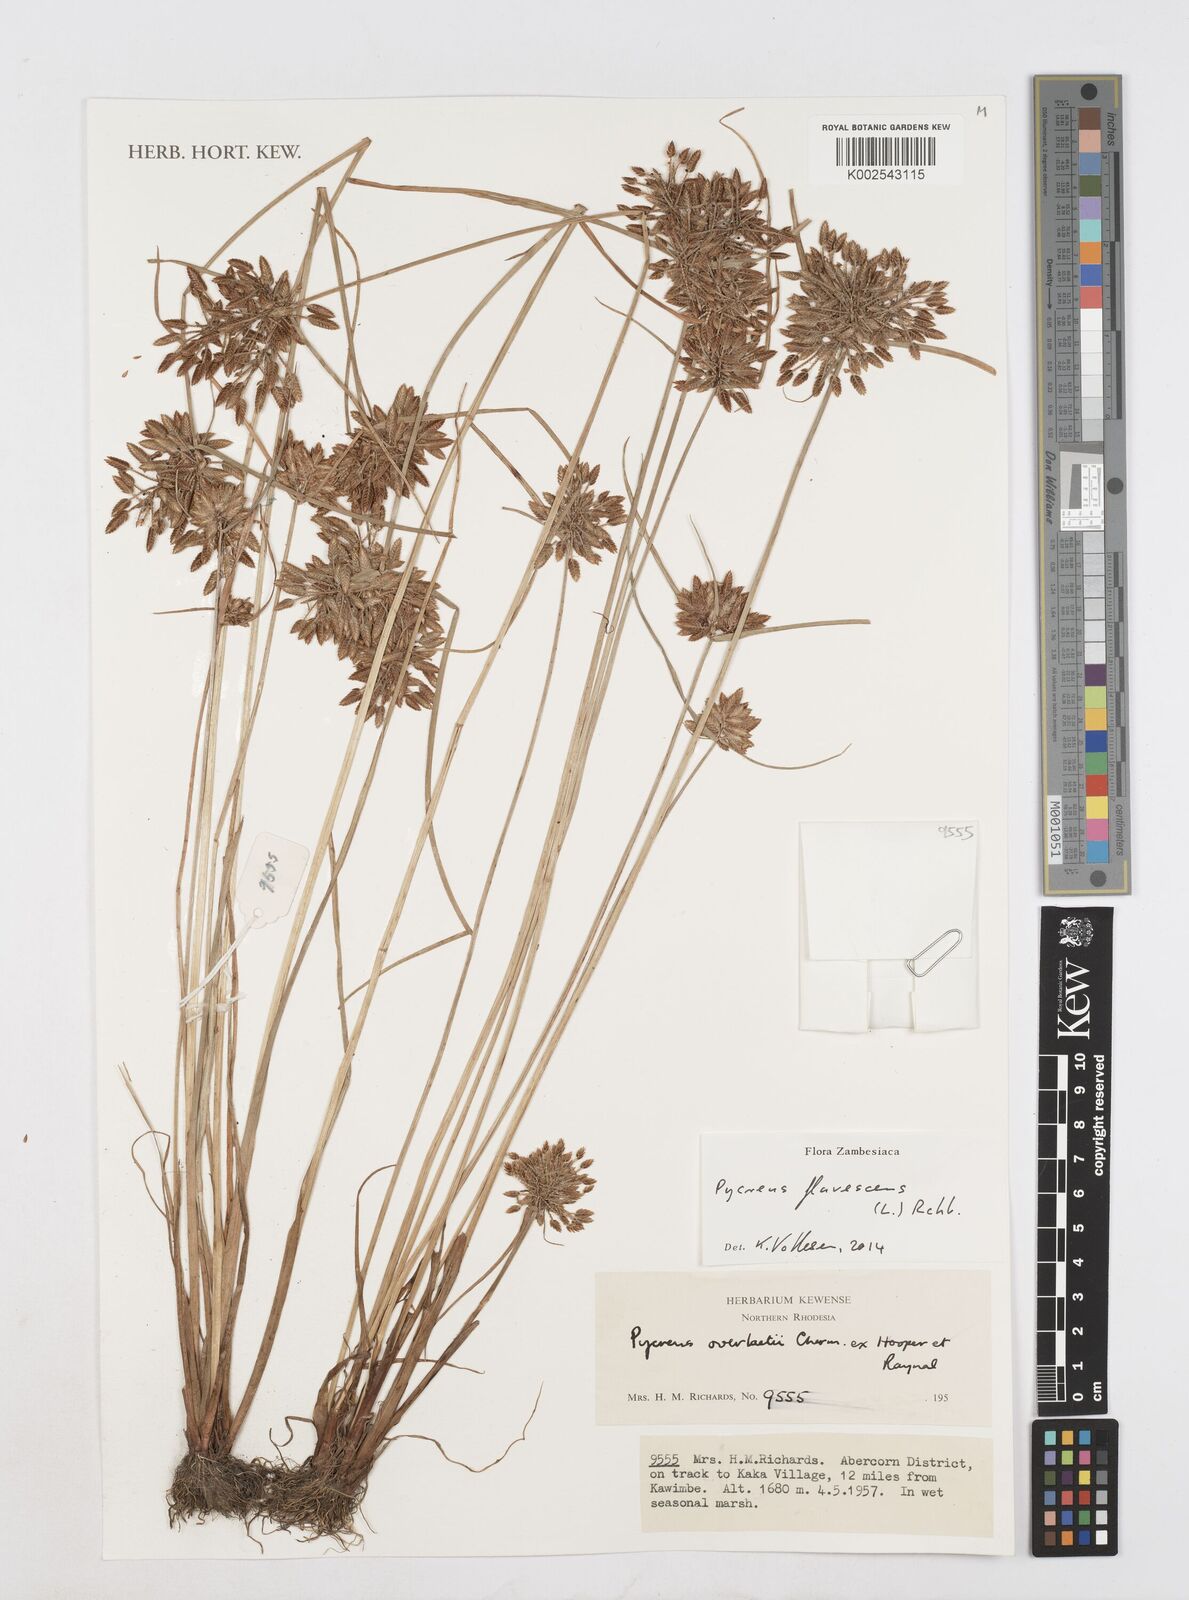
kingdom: Plantae
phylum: Tracheophyta
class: Liliopsida
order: Poales
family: Cyperaceae
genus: Cyperus
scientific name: Cyperus flavescens
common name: Yellow galingale
